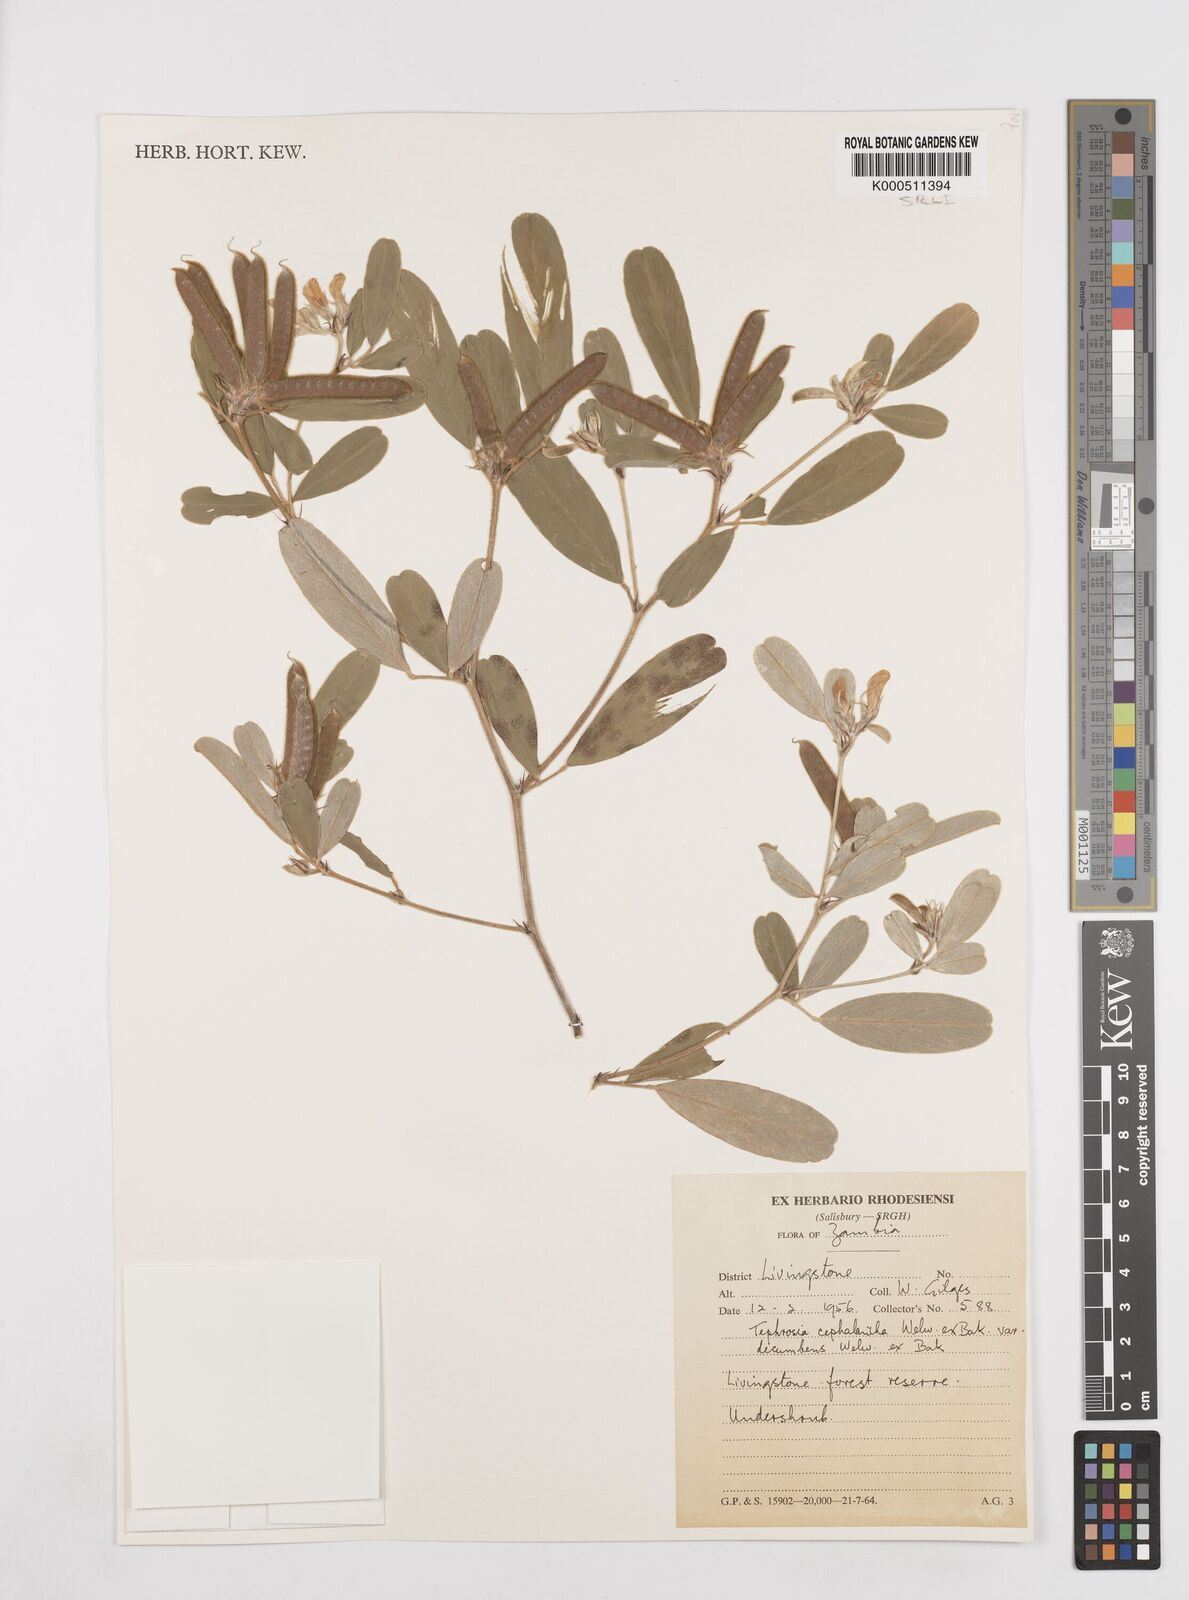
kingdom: Plantae
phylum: Tracheophyta
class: Magnoliopsida
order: Fabales
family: Fabaceae
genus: Tephrosia
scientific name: Tephrosia
